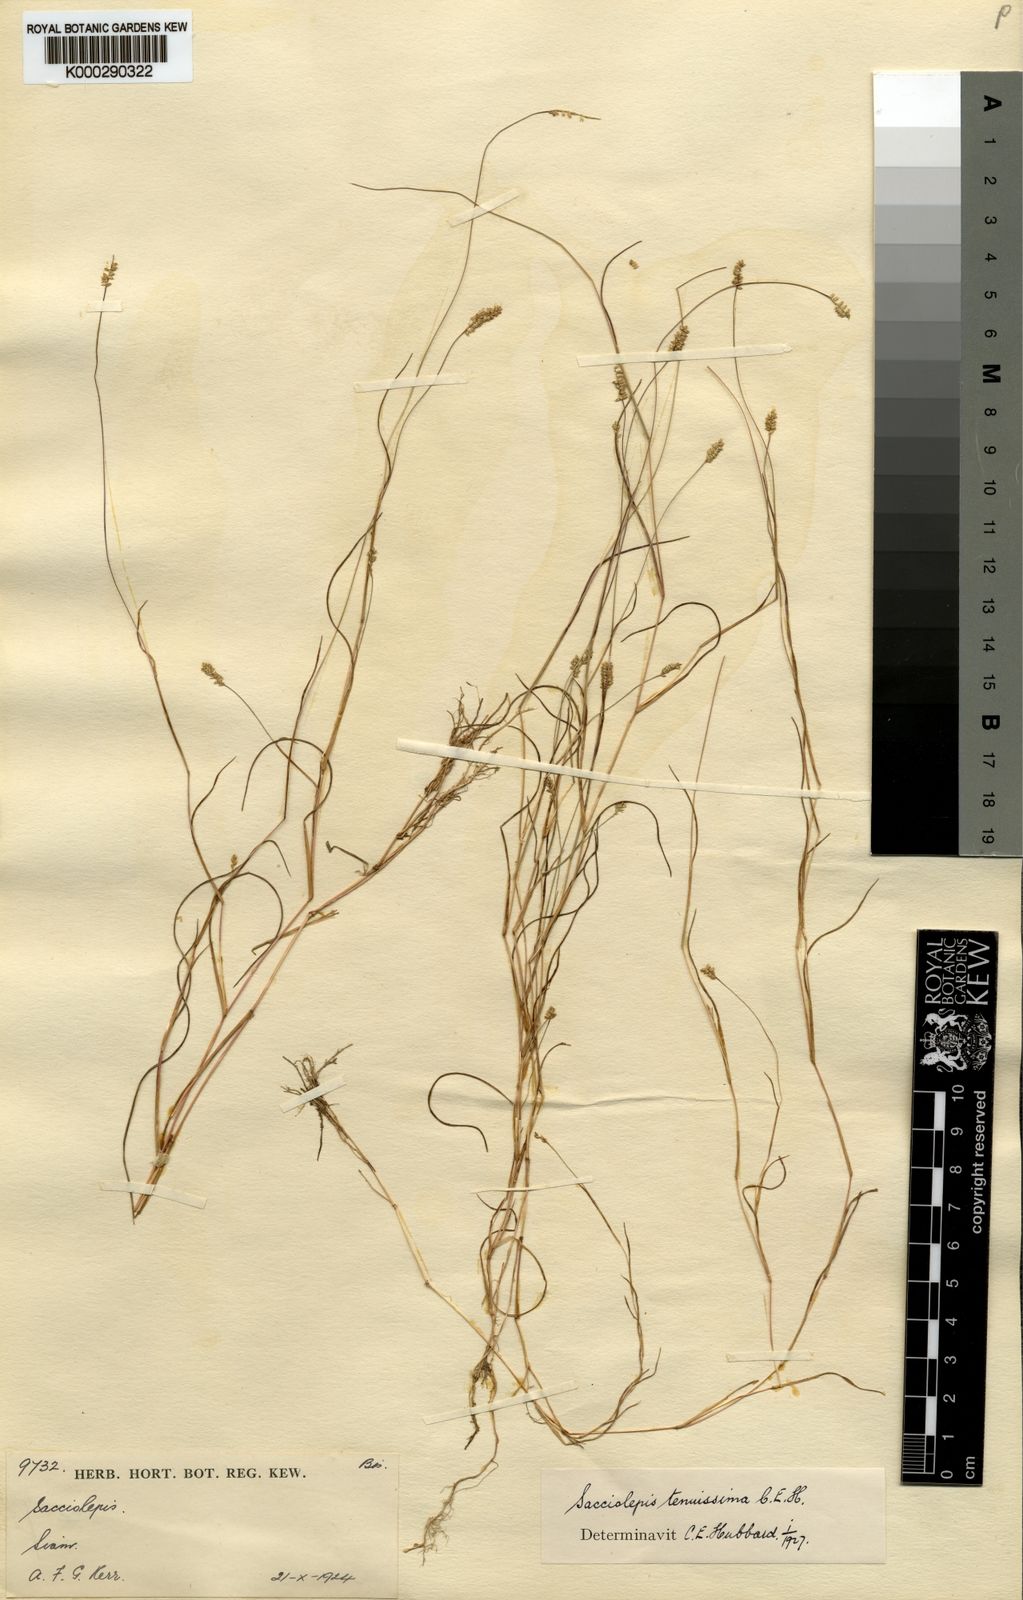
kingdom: Plantae
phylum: Tracheophyta
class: Liliopsida
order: Poales
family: Poaceae
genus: Sacciolepis
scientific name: Sacciolepis tenuissima
